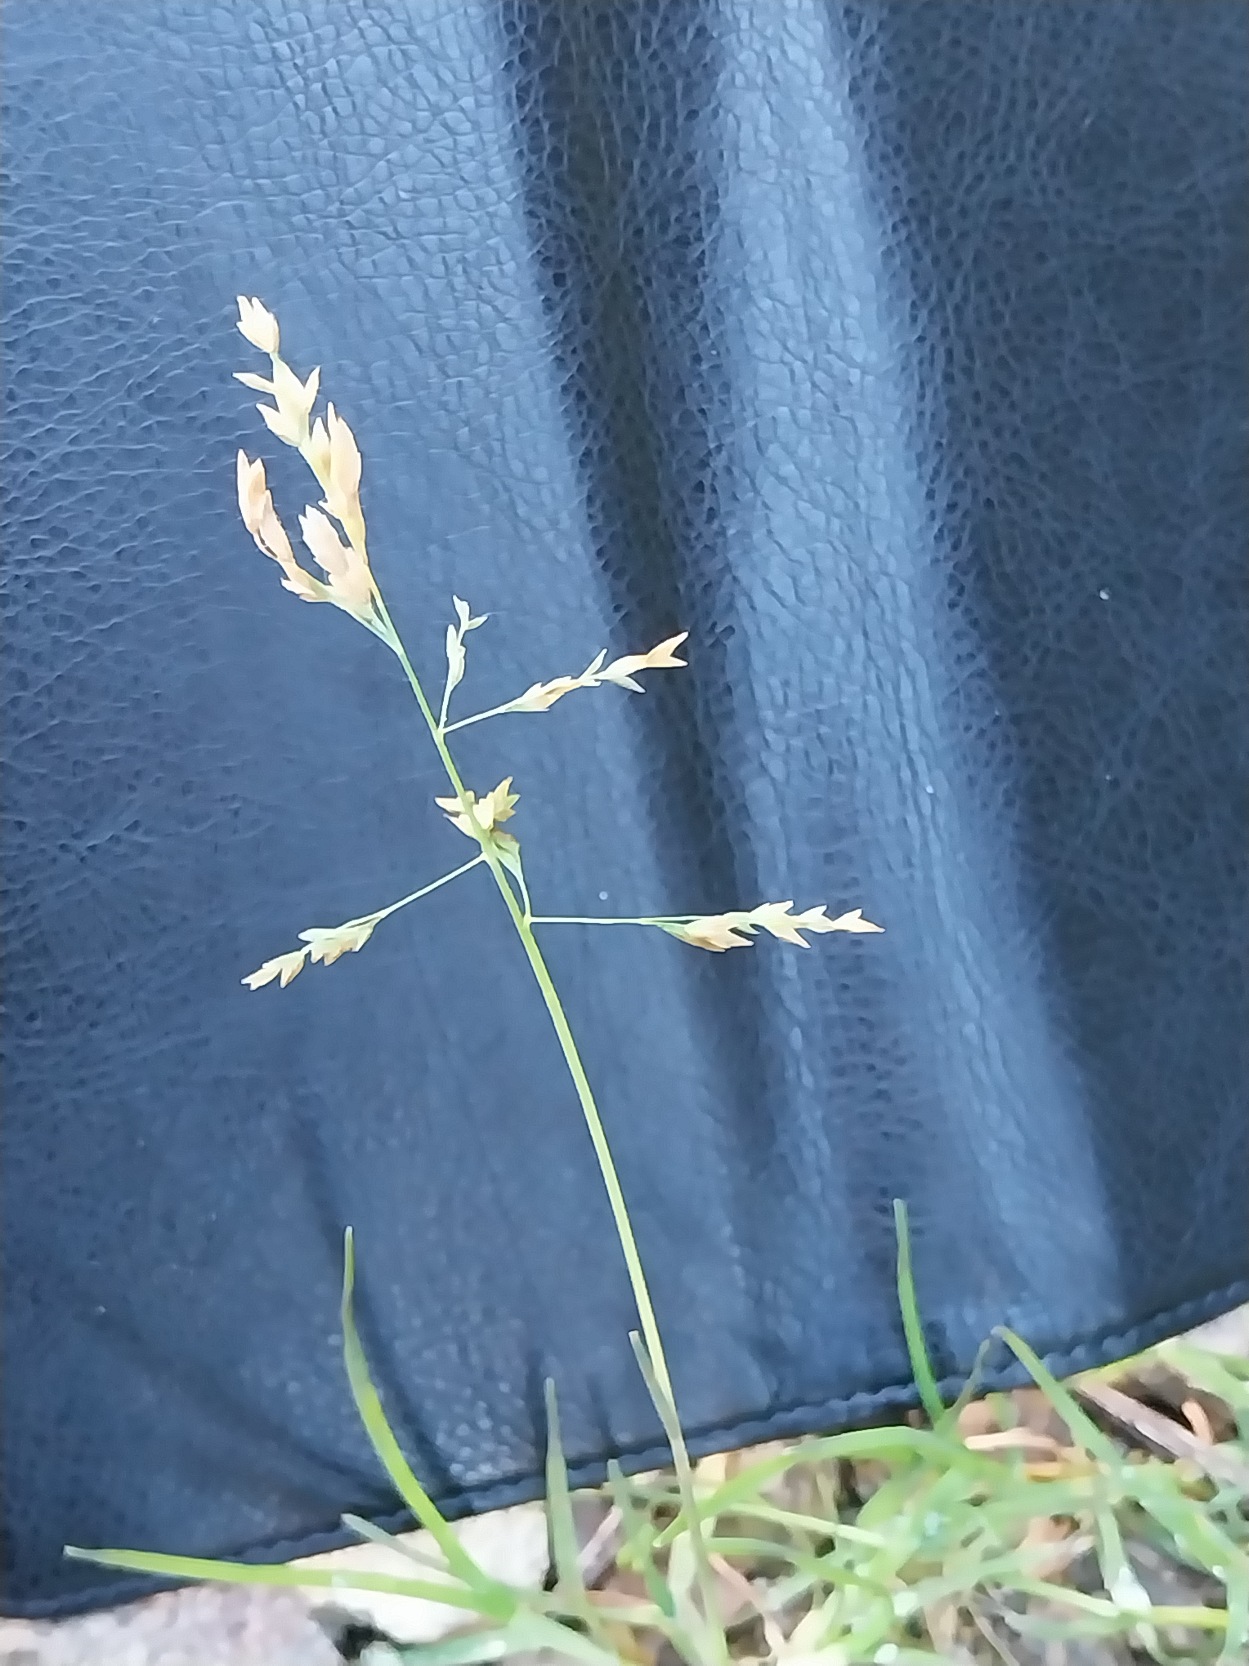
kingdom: Plantae
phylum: Tracheophyta
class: Liliopsida
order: Poales
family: Poaceae
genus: Poa
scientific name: Poa annua
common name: Enårig rapgræs
